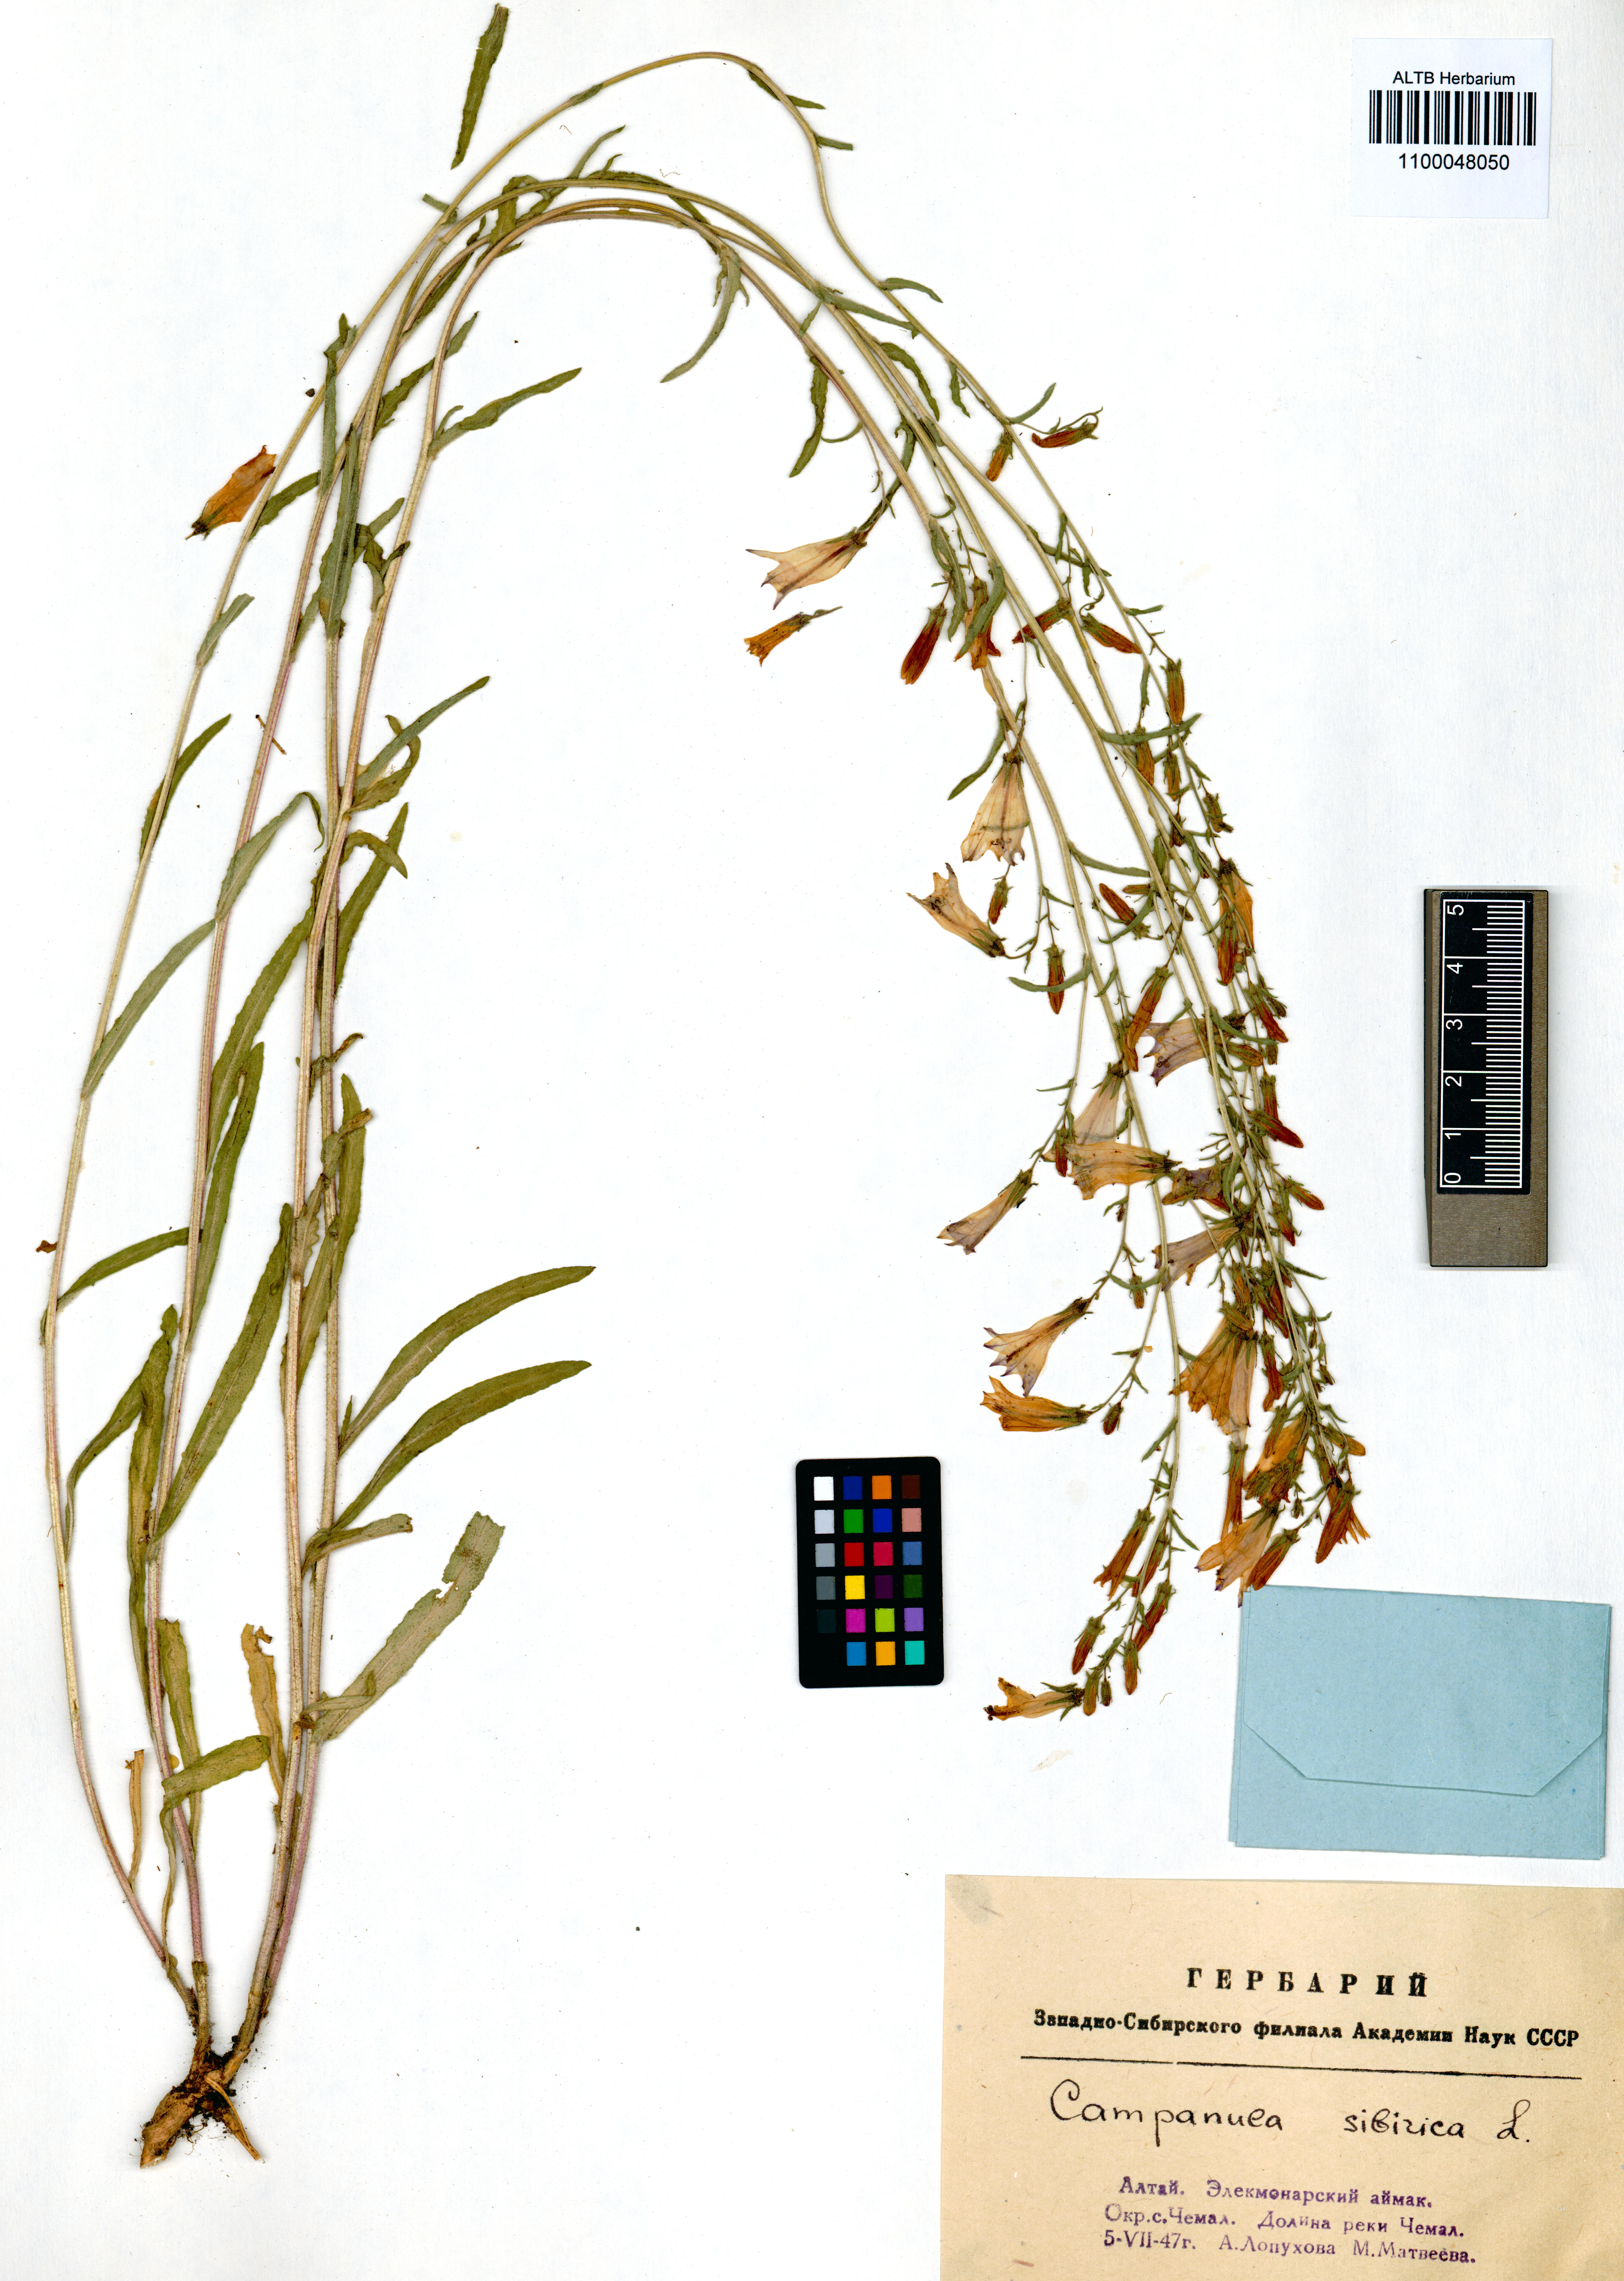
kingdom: Plantae
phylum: Tracheophyta
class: Magnoliopsida
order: Asterales
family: Campanulaceae
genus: Campanula
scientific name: Campanula sibirica
